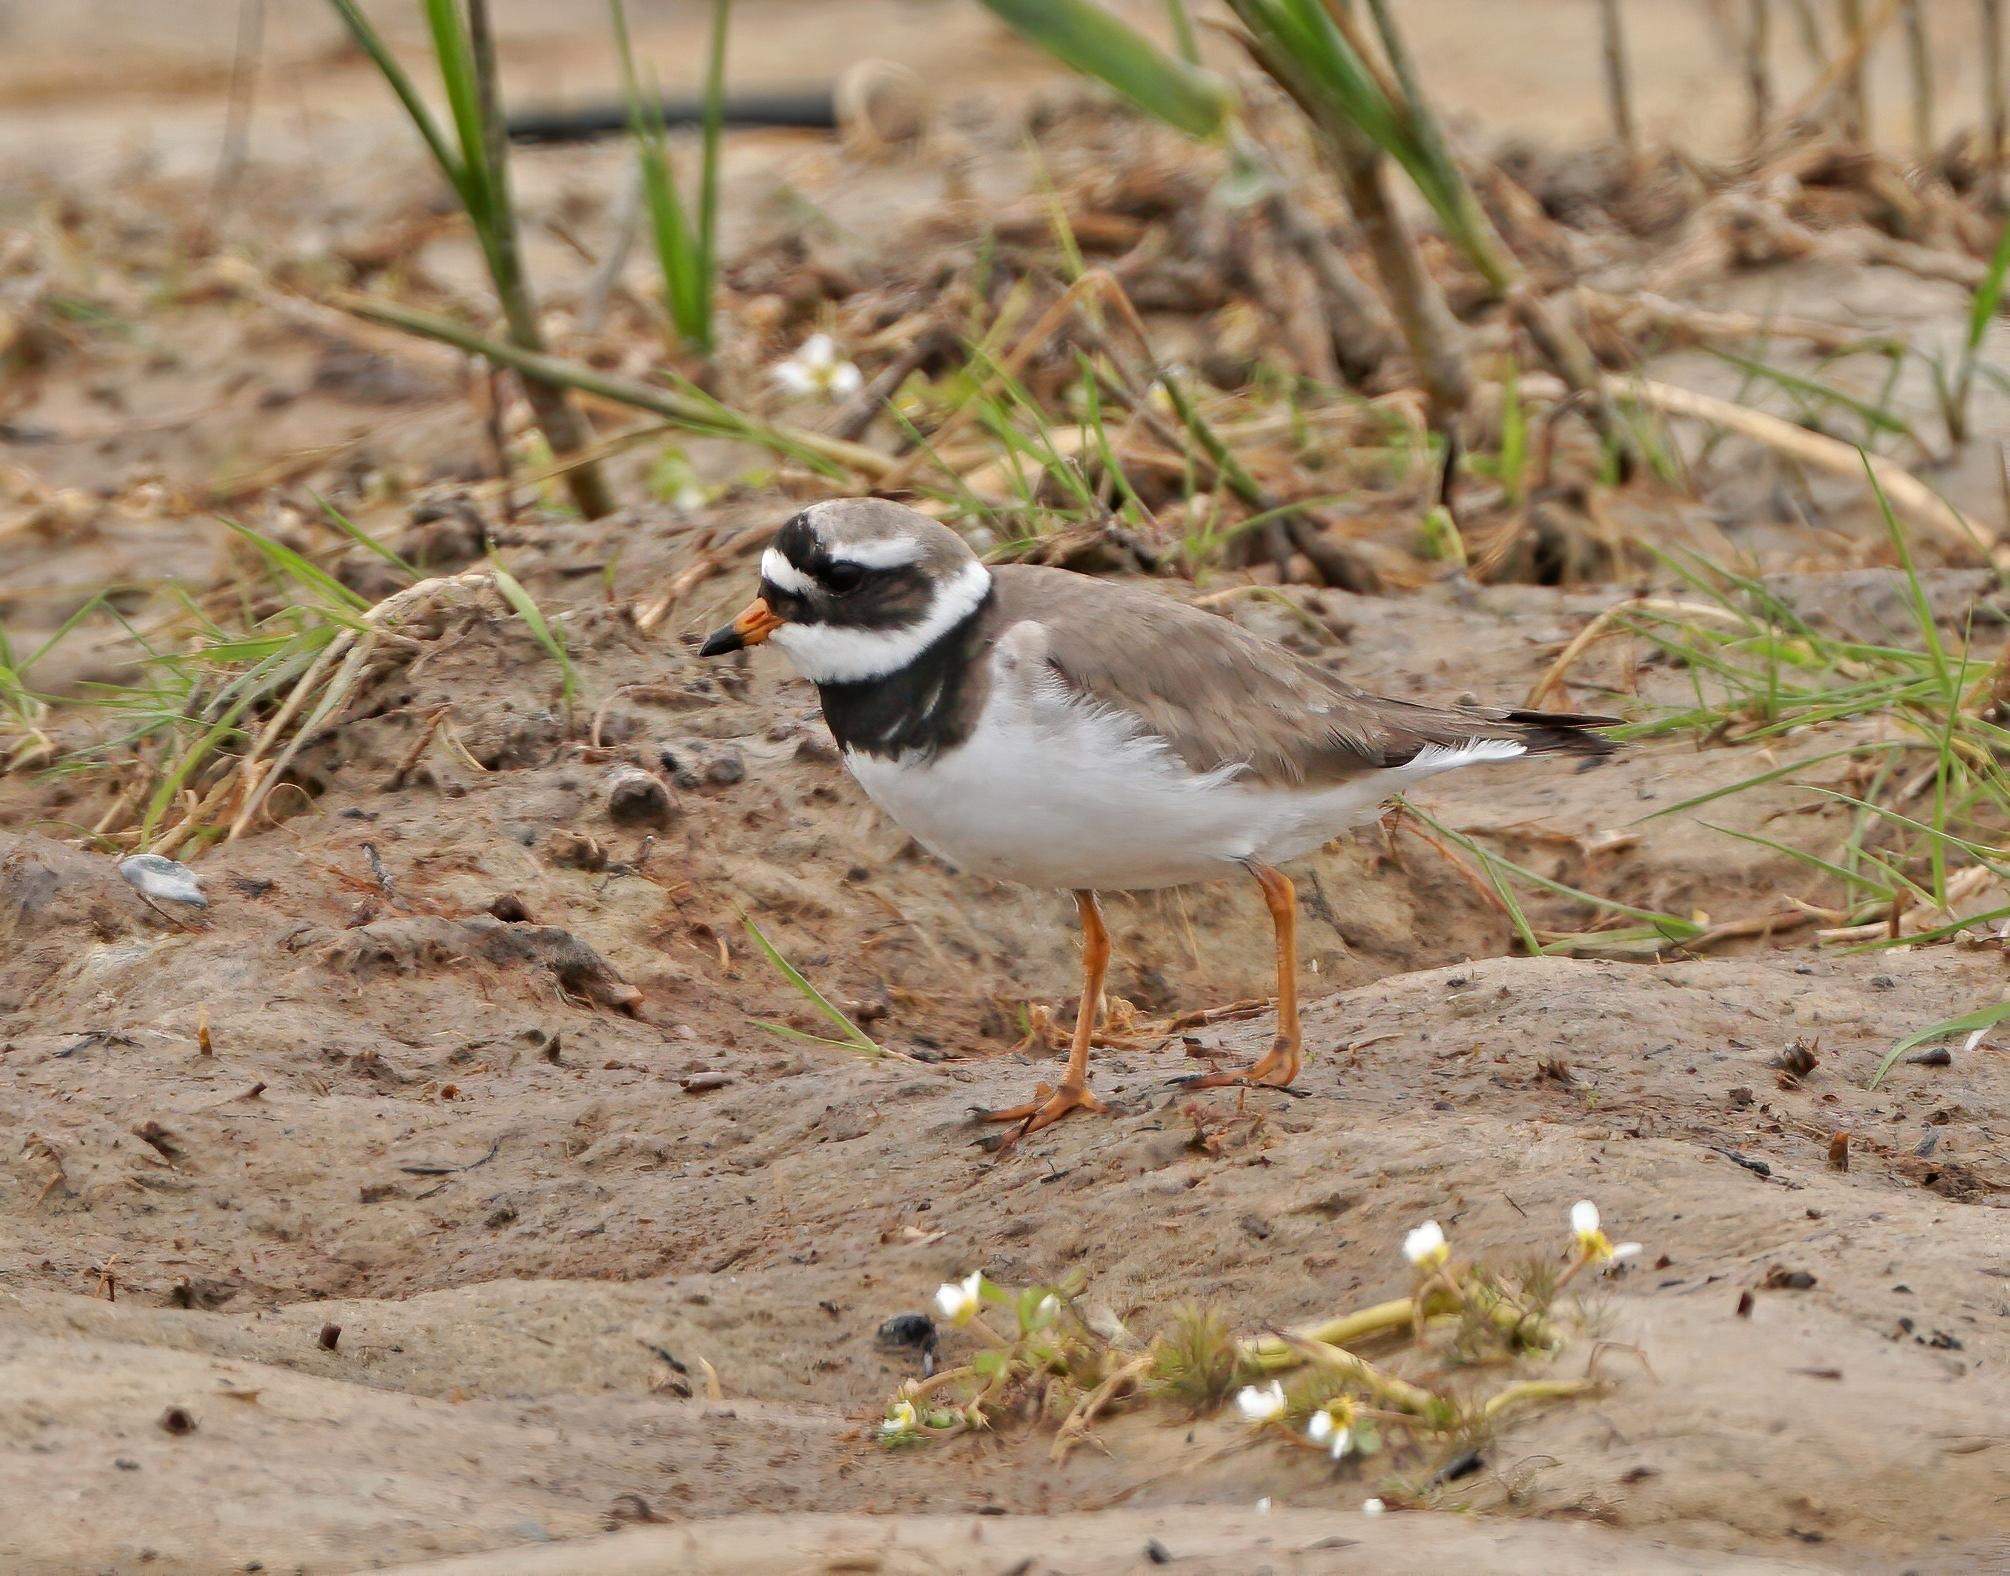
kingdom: Animalia
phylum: Chordata
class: Aves
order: Charadriiformes
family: Charadriidae
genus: Charadrius
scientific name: Charadrius hiaticula
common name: Stor præstekrave
